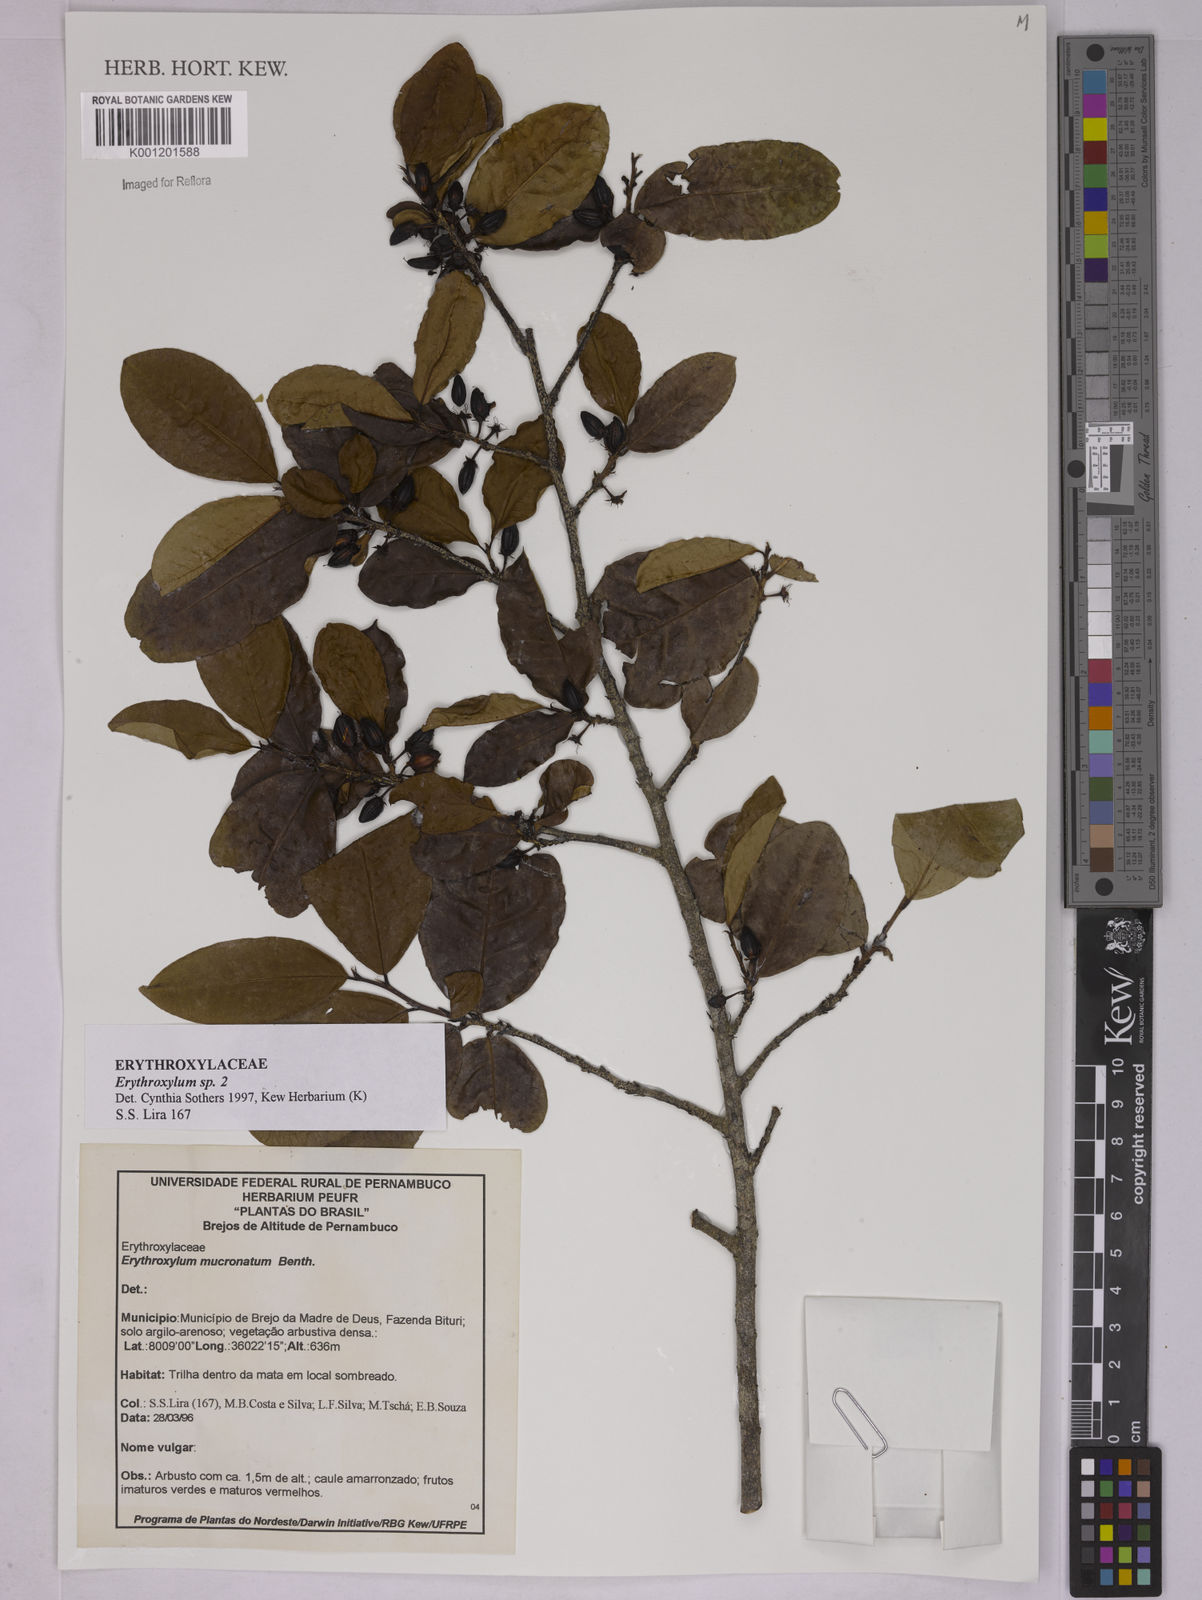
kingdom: Plantae
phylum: Tracheophyta
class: Magnoliopsida
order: Malpighiales
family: Erythroxylaceae
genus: Erythroxylum
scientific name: Erythroxylum
